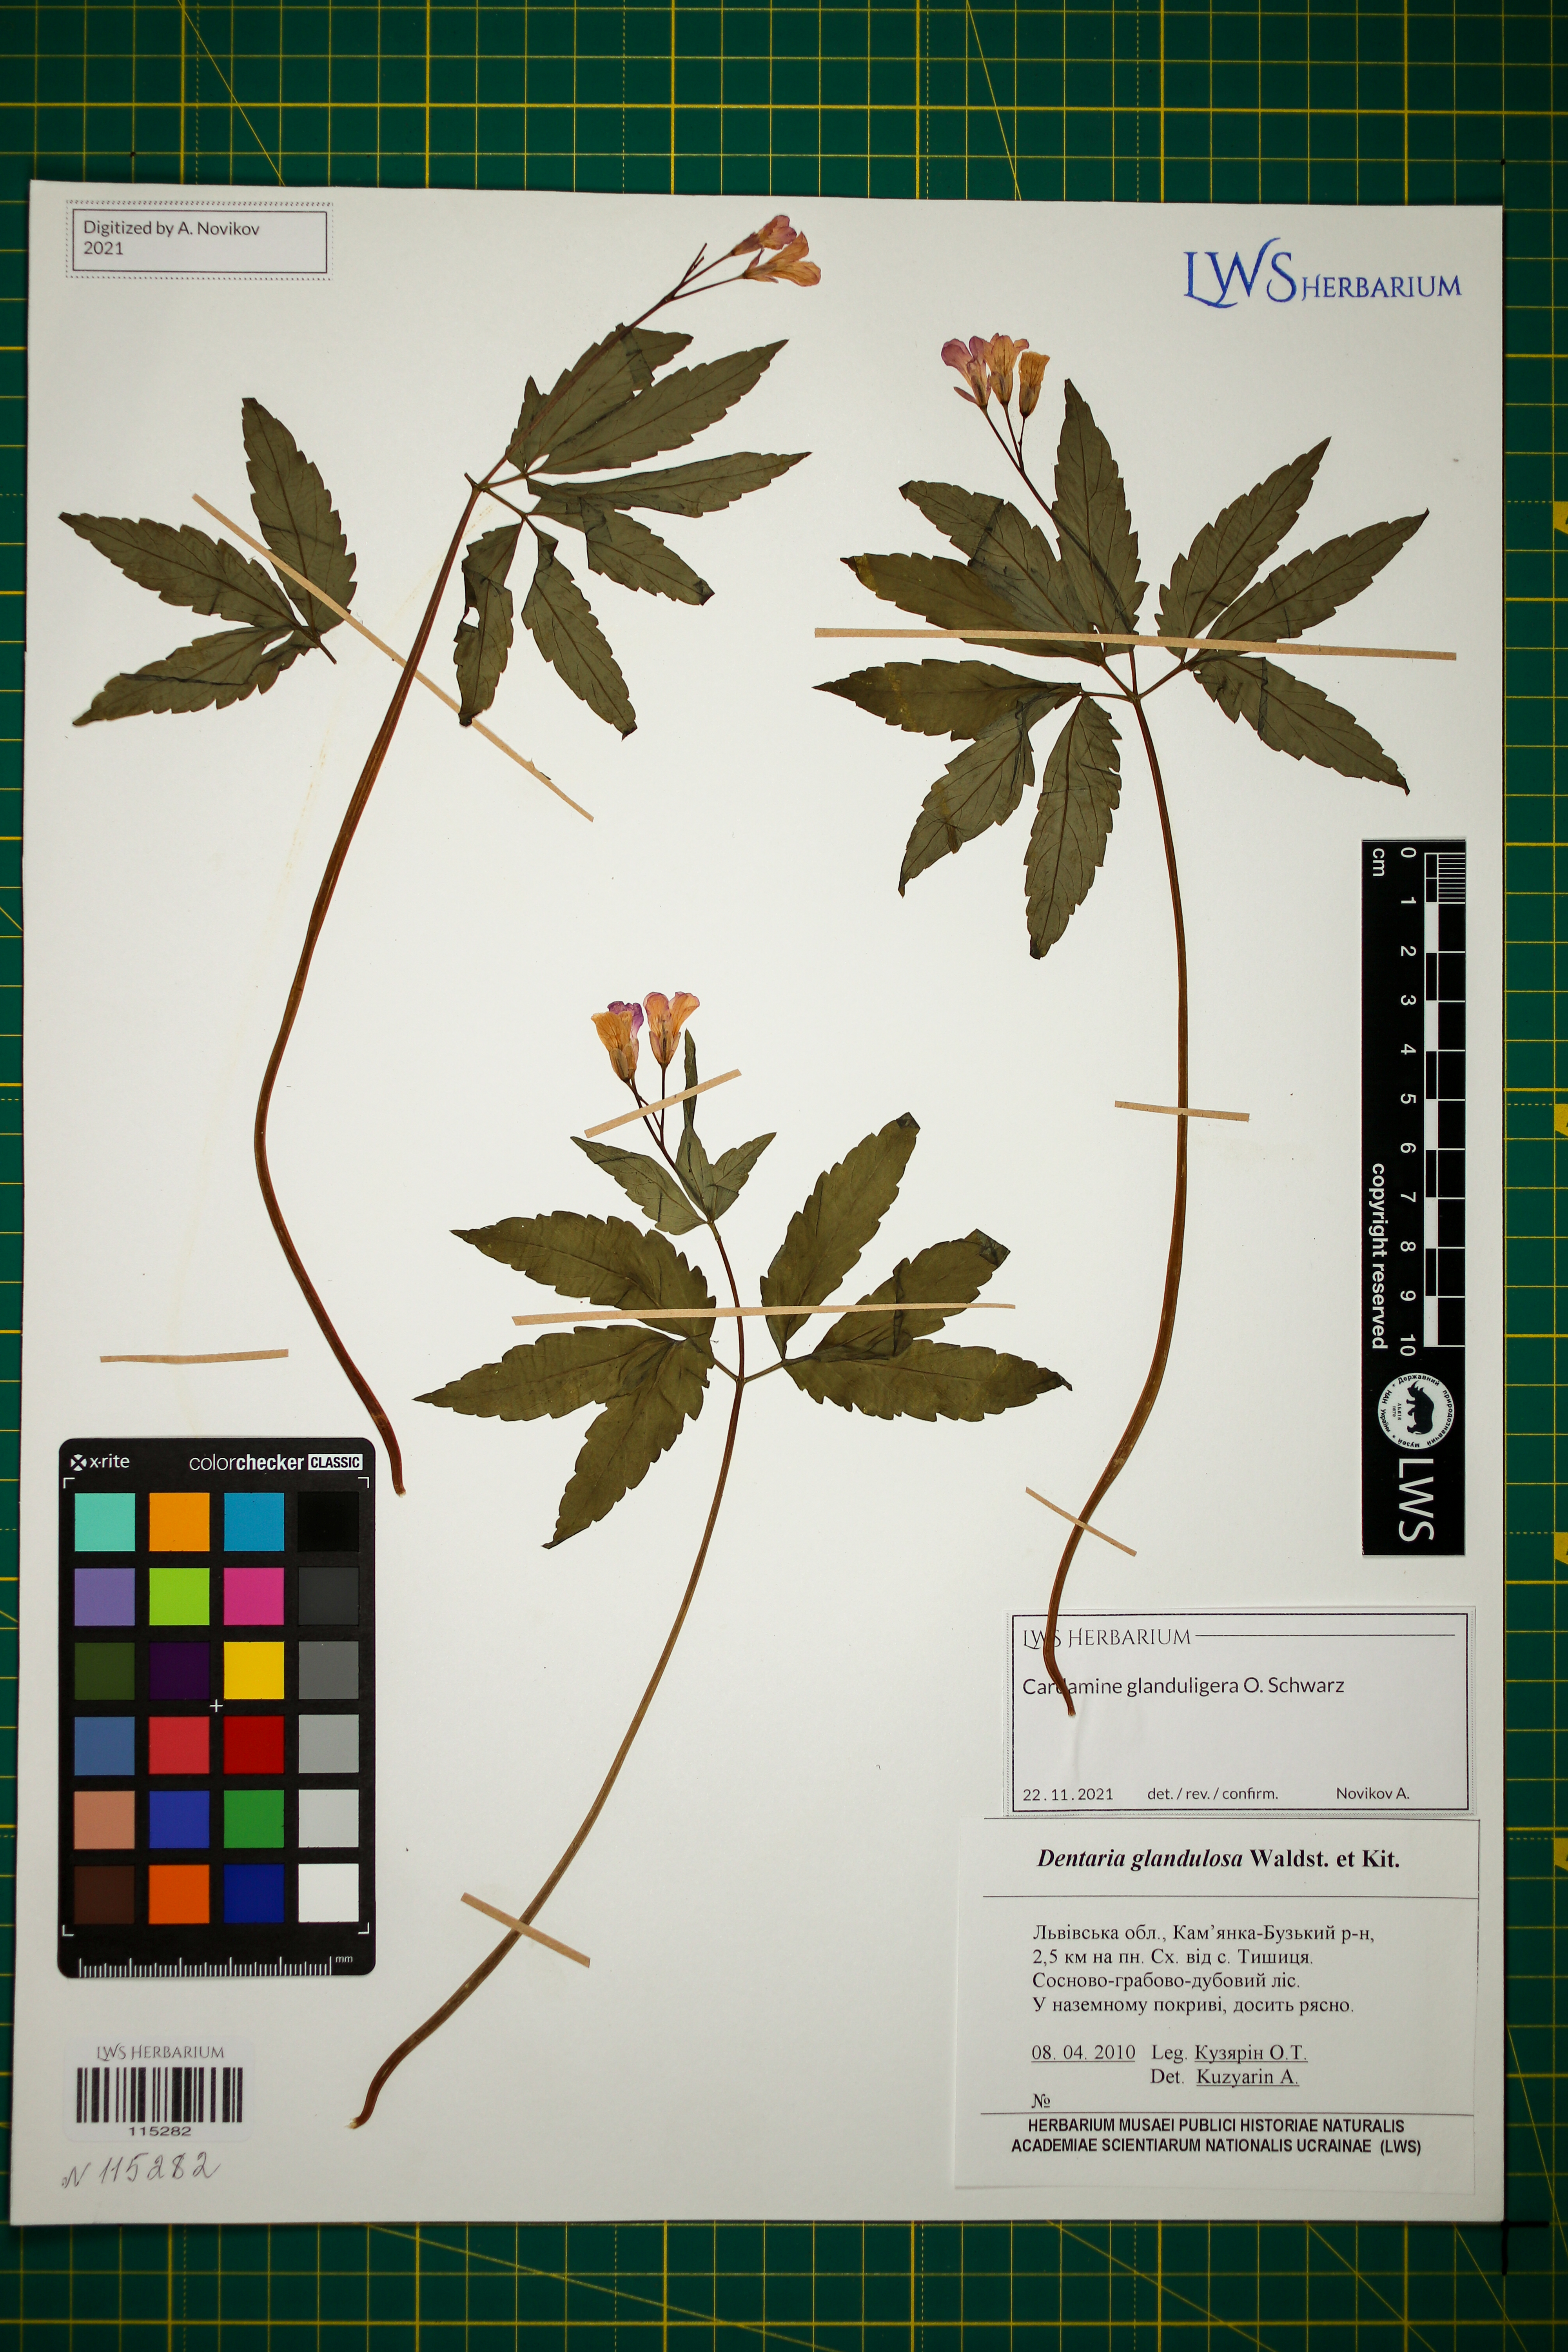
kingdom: Plantae
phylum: Tracheophyta
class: Magnoliopsida
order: Brassicales
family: Brassicaceae
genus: Cardamine
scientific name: Cardamine glanduligera
